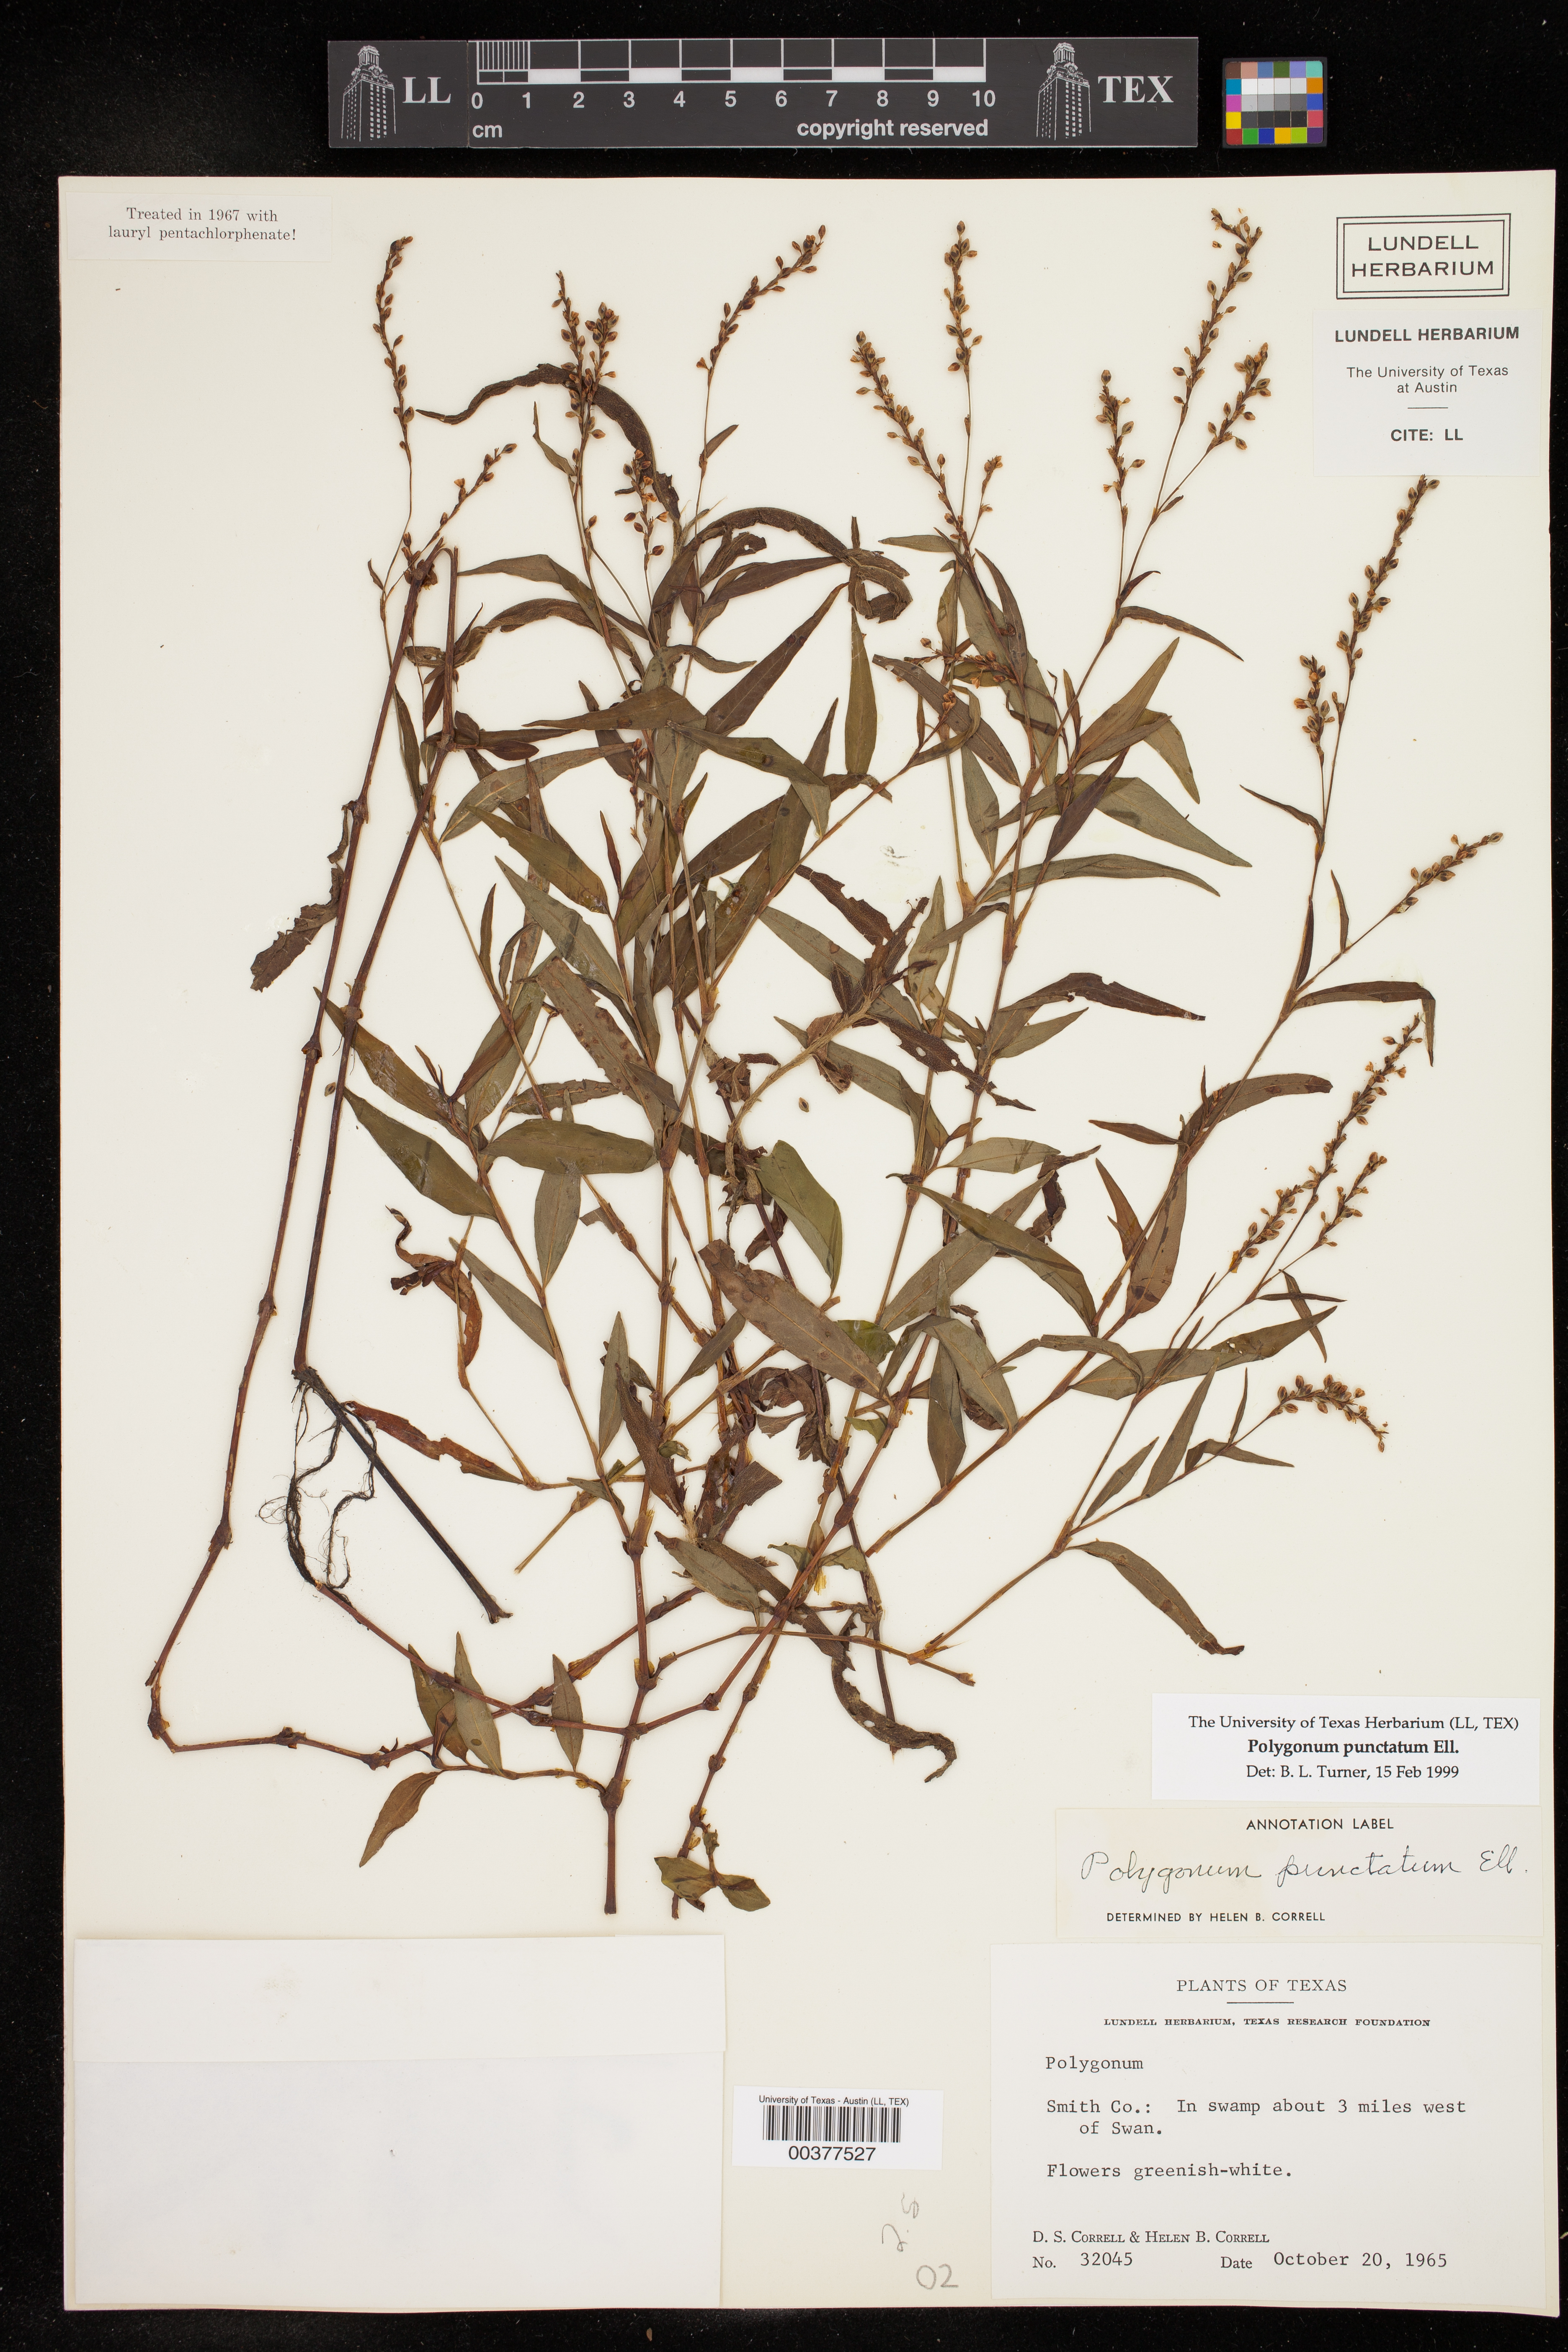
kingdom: Plantae
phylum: Tracheophyta
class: Magnoliopsida
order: Caryophyllales
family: Polygonaceae
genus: Persicaria
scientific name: Persicaria punctata
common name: Dotted smartweed
